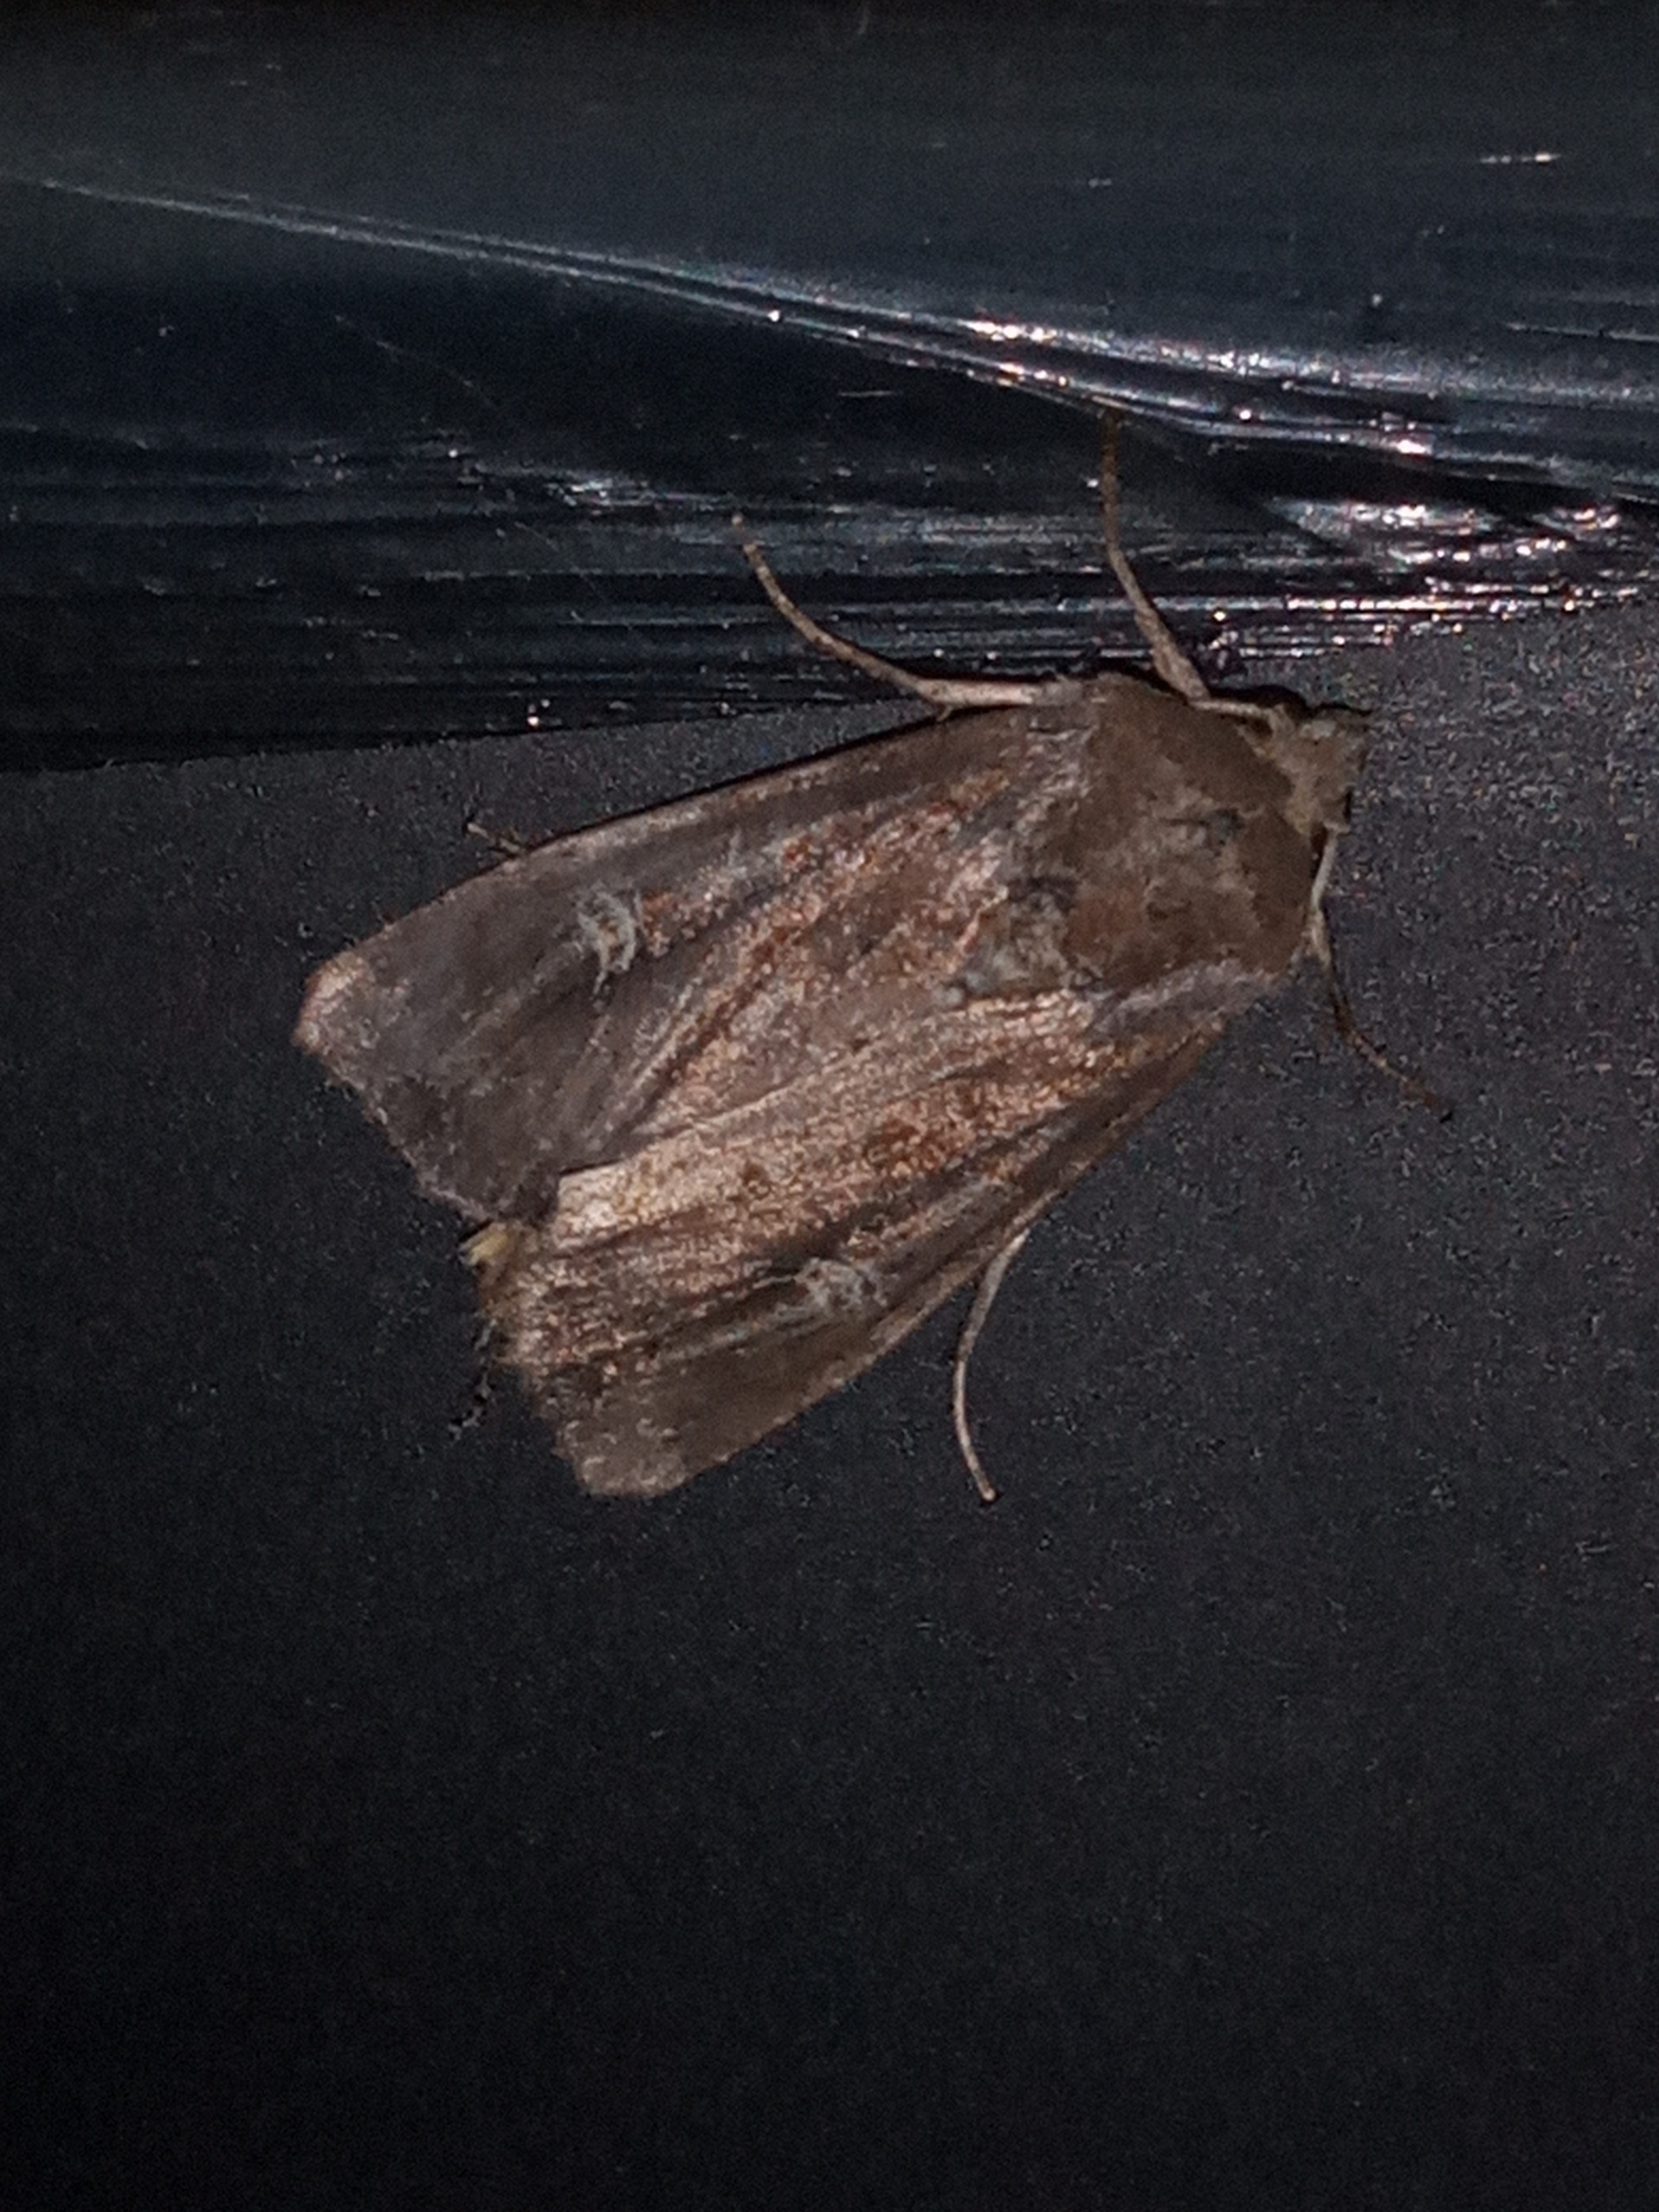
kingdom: Animalia
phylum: Arthropoda
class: Insecta
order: Lepidoptera
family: Noctuidae
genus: Helotropha
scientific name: Helotropha leucostigma
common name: Brun engugle
